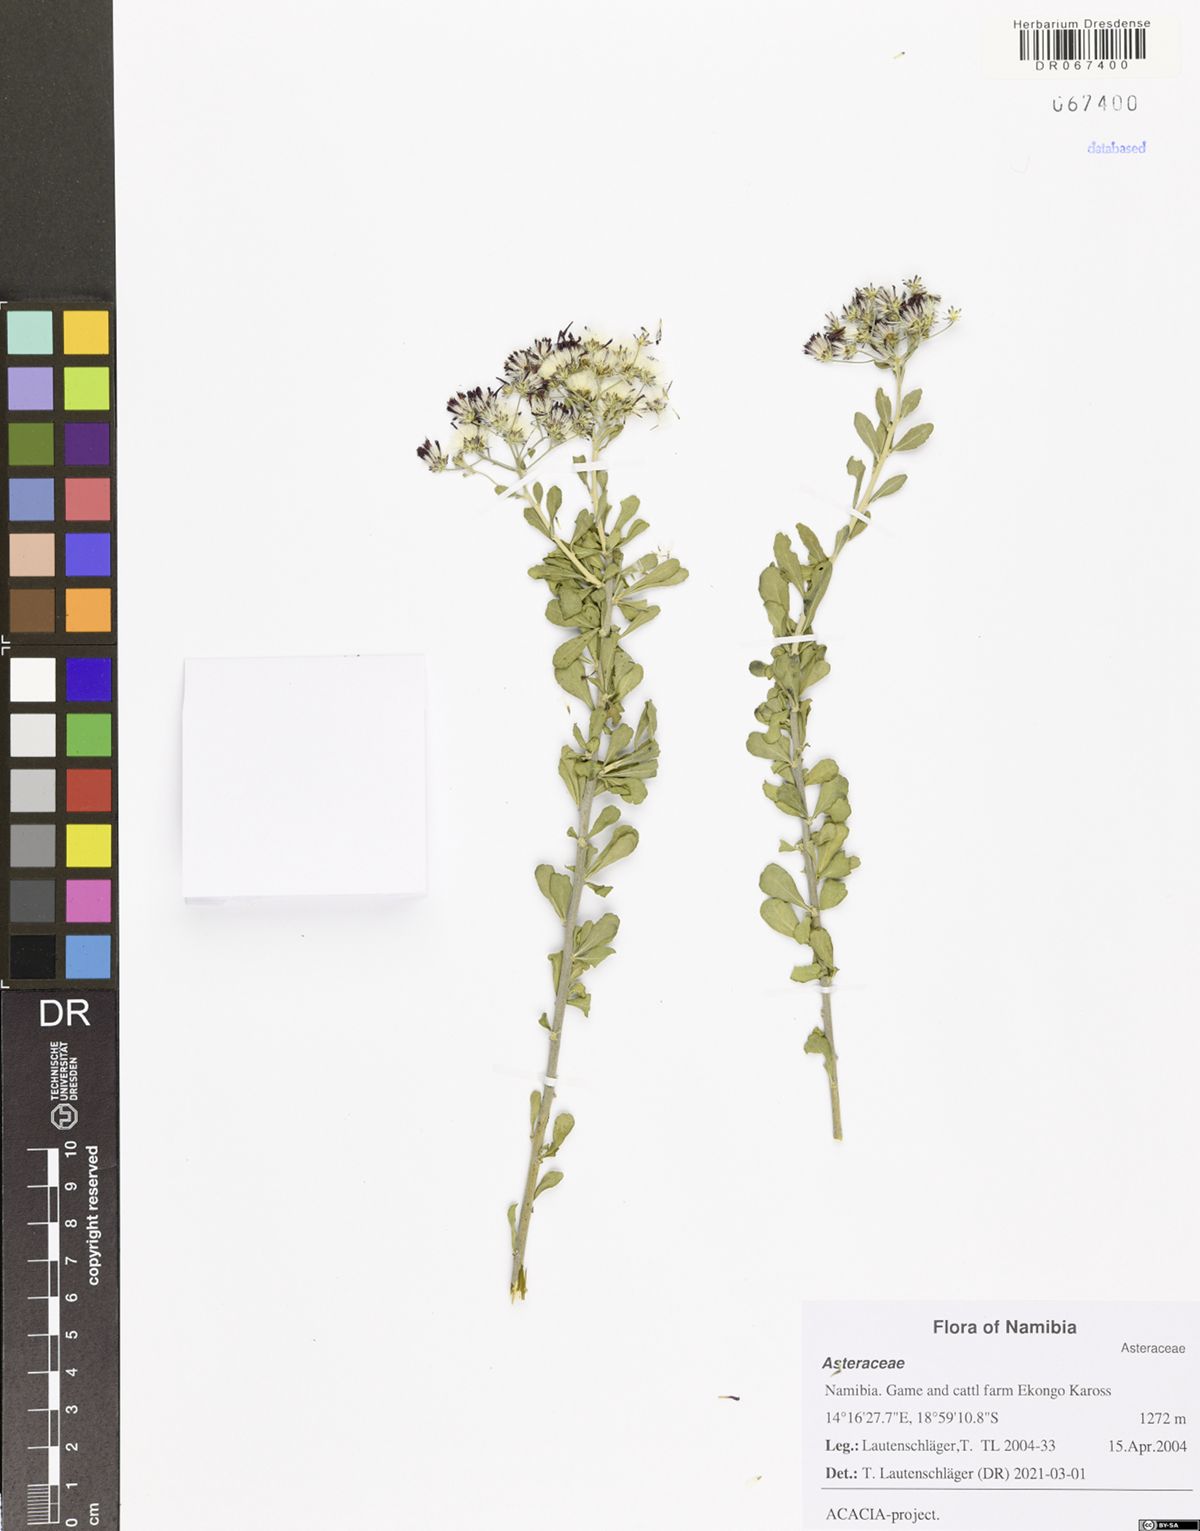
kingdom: Plantae
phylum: Tracheophyta
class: Magnoliopsida
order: Asterales
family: Asteraceae
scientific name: Asteraceae
